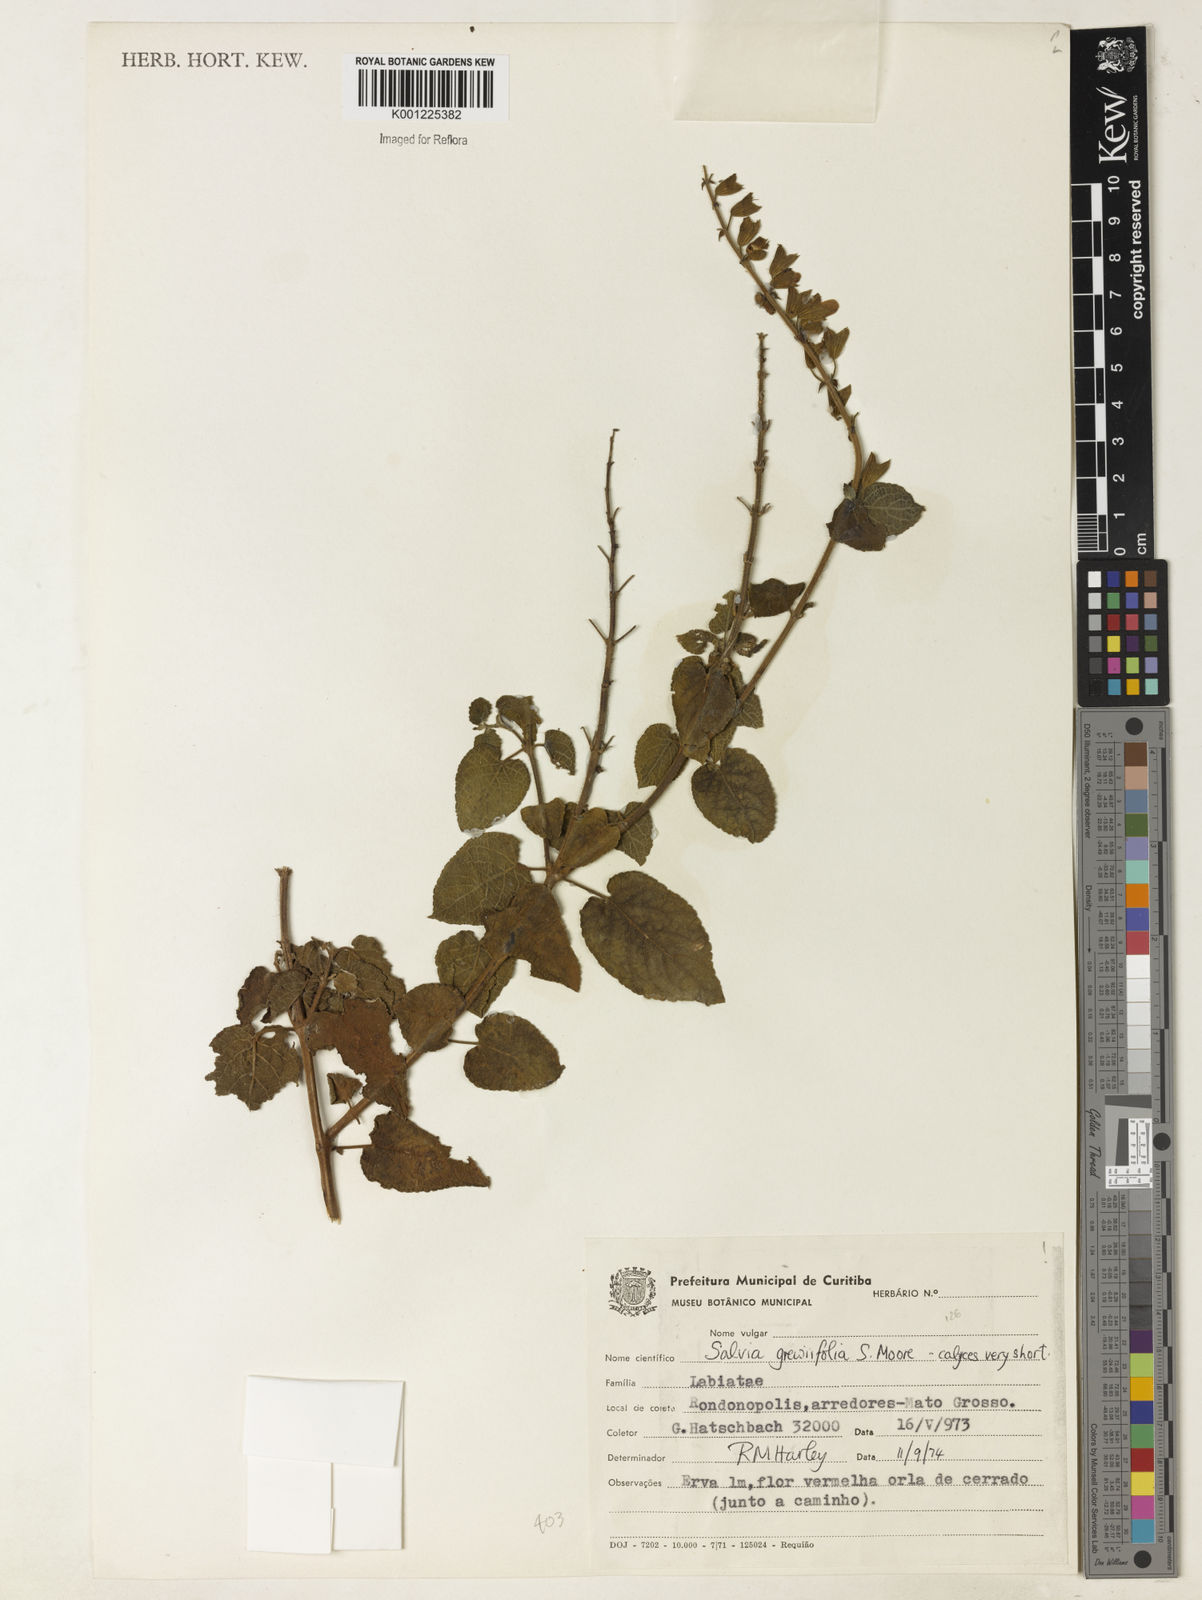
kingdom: Plantae
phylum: Tracheophyta
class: Magnoliopsida
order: Lamiales
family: Lamiaceae
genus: Salvia
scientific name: Salvia grewiifolia
